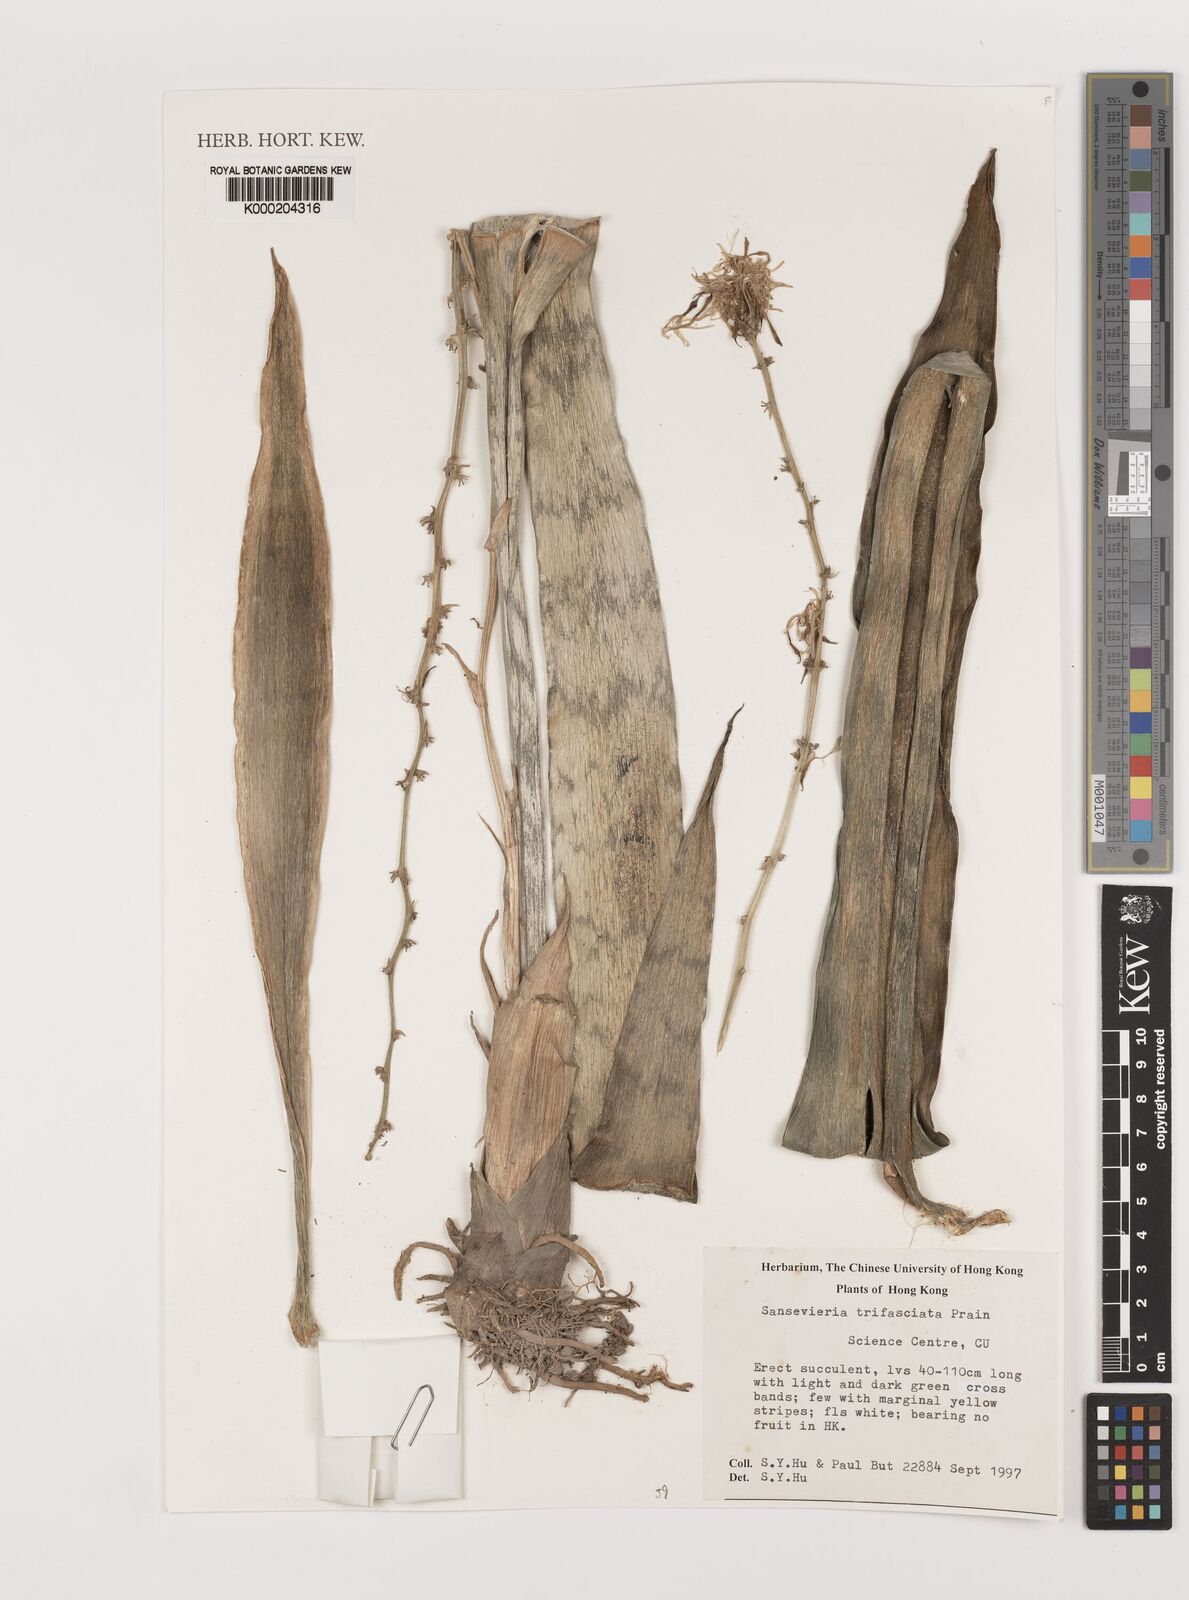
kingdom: Plantae
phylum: Tracheophyta
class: Liliopsida
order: Asparagales
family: Asparagaceae
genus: Dracaena
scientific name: Dracaena trifasciata
